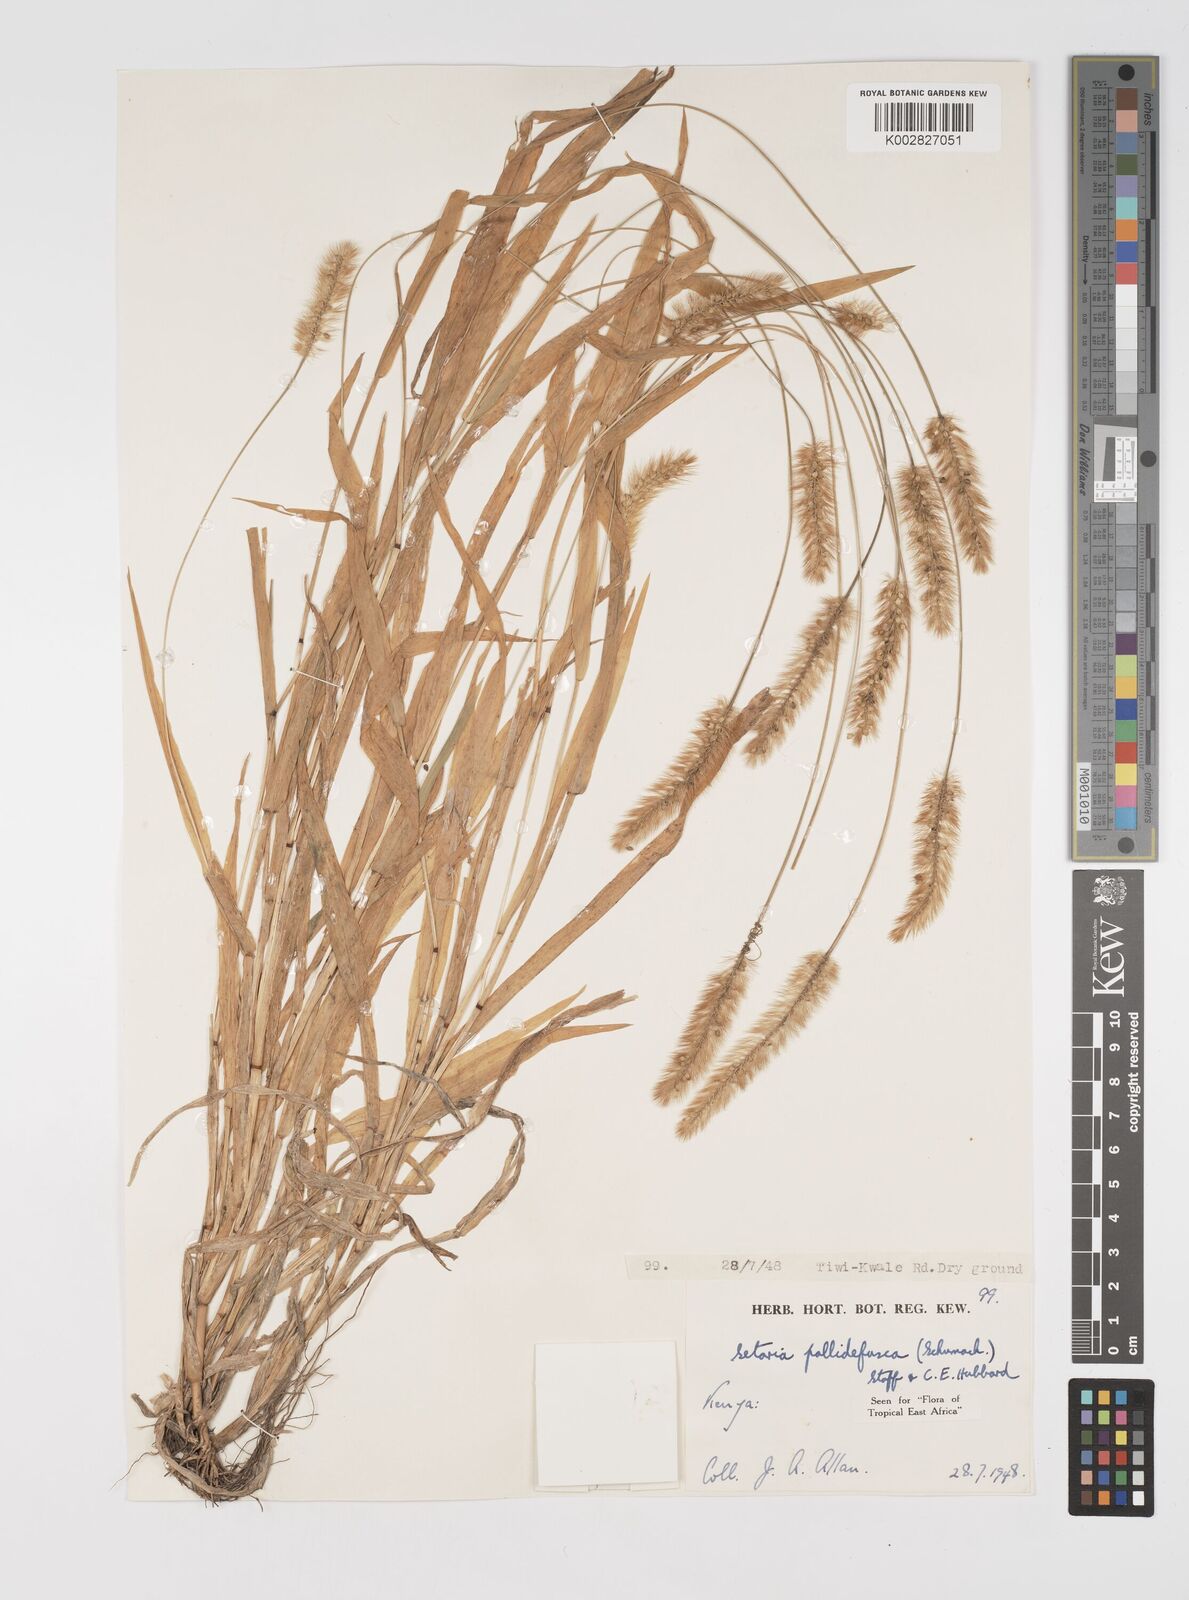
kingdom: Plantae
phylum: Tracheophyta
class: Liliopsida
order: Poales
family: Poaceae
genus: Setaria
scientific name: Setaria pumila
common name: Yellow bristle-grass
